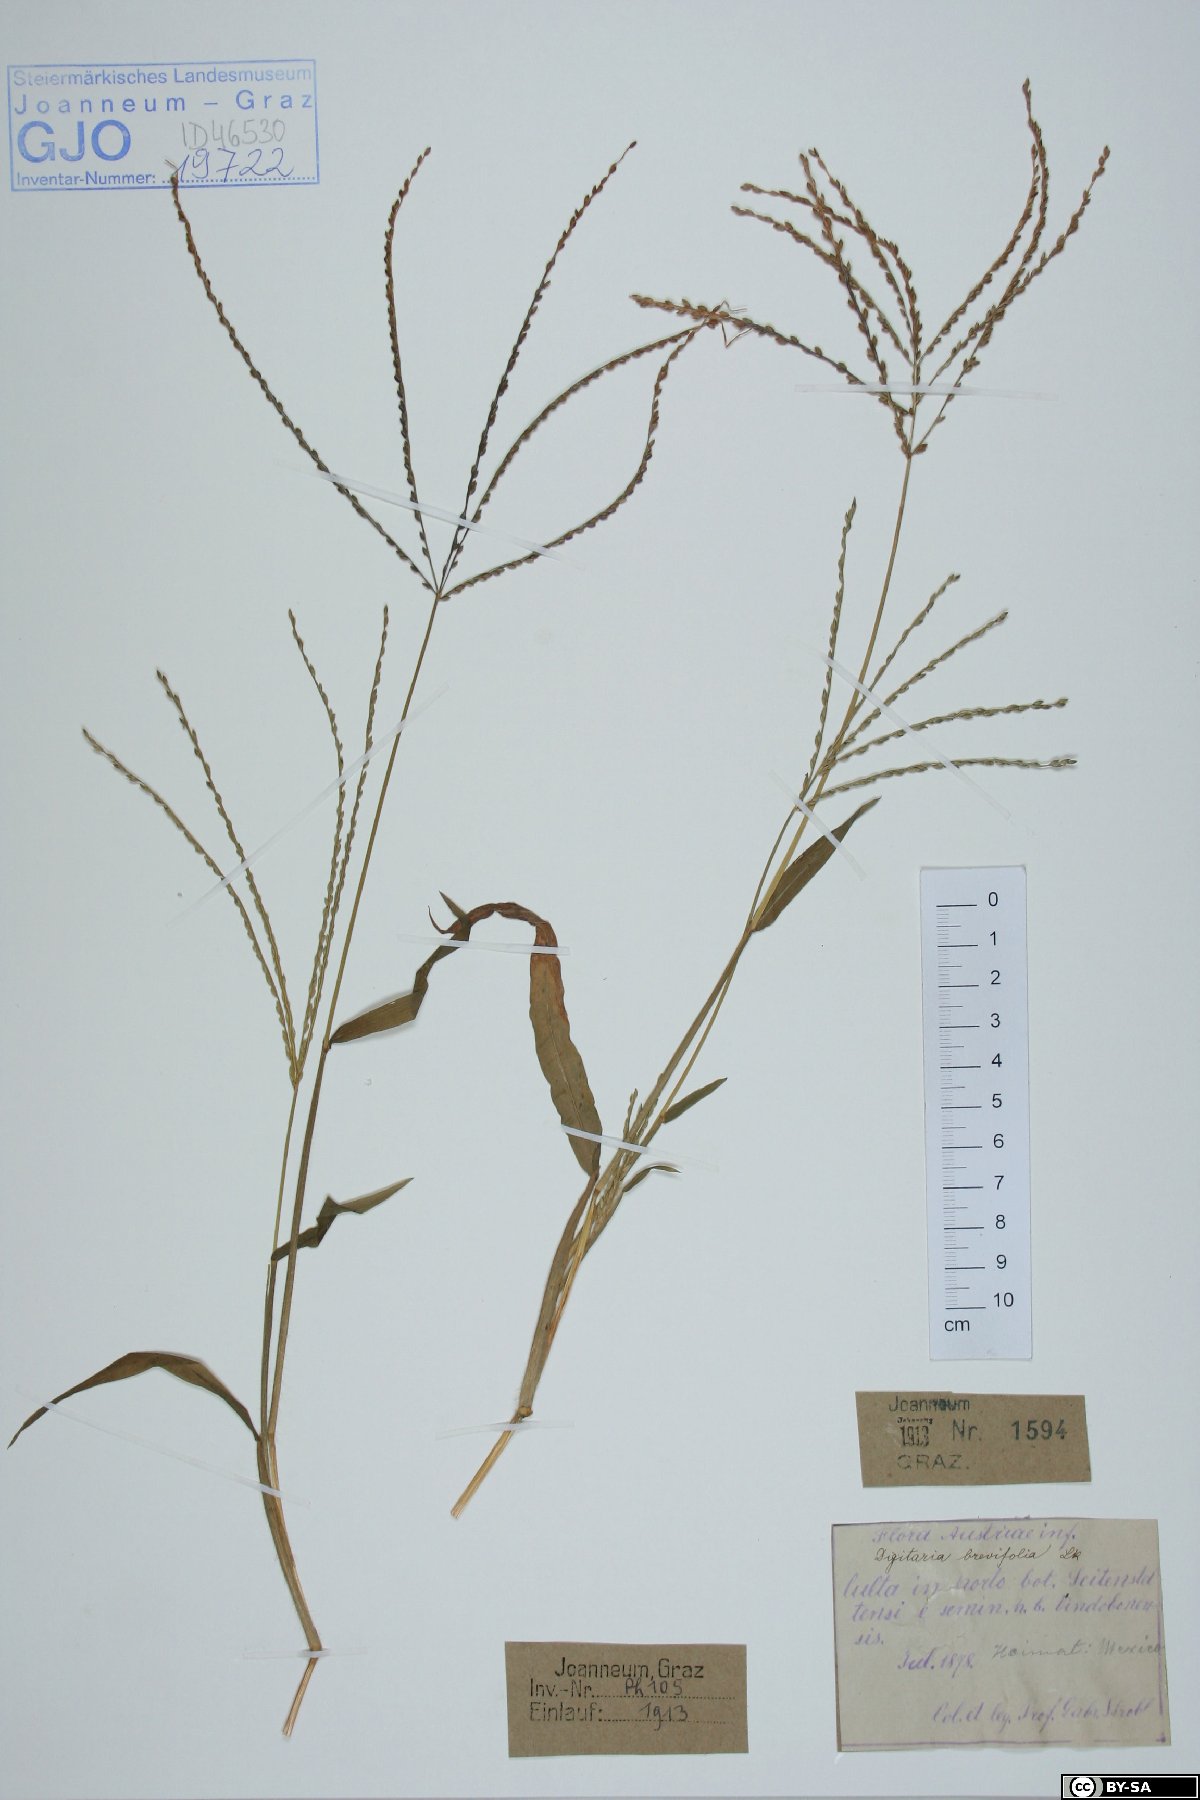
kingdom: Plantae
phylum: Tracheophyta
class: Liliopsida
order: Poales
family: Poaceae
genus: Digitaria
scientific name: Digitaria ciliaris
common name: Tropical finger-grass
